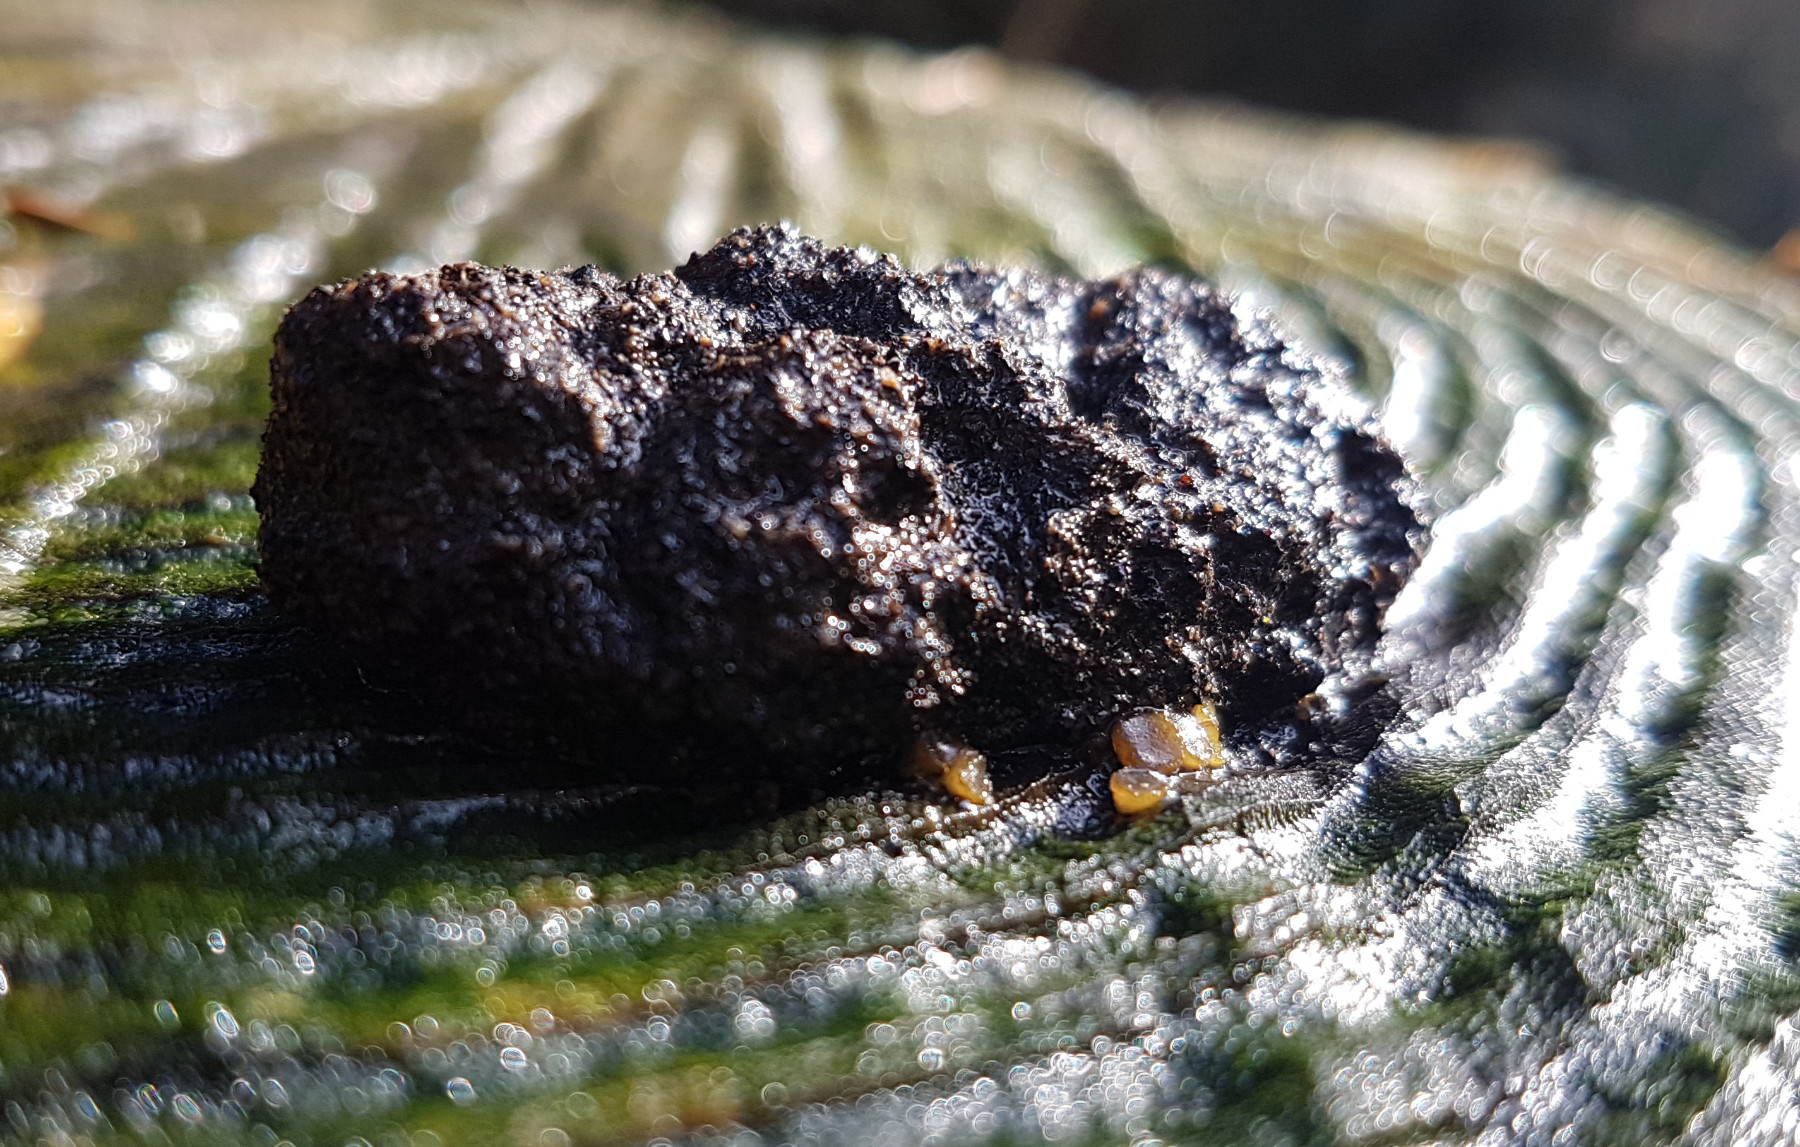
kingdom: Fungi
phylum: Ascomycota
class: Pezizomycetes
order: Pezizales
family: Ascobolaceae
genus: Ascobolus
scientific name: Ascobolus
